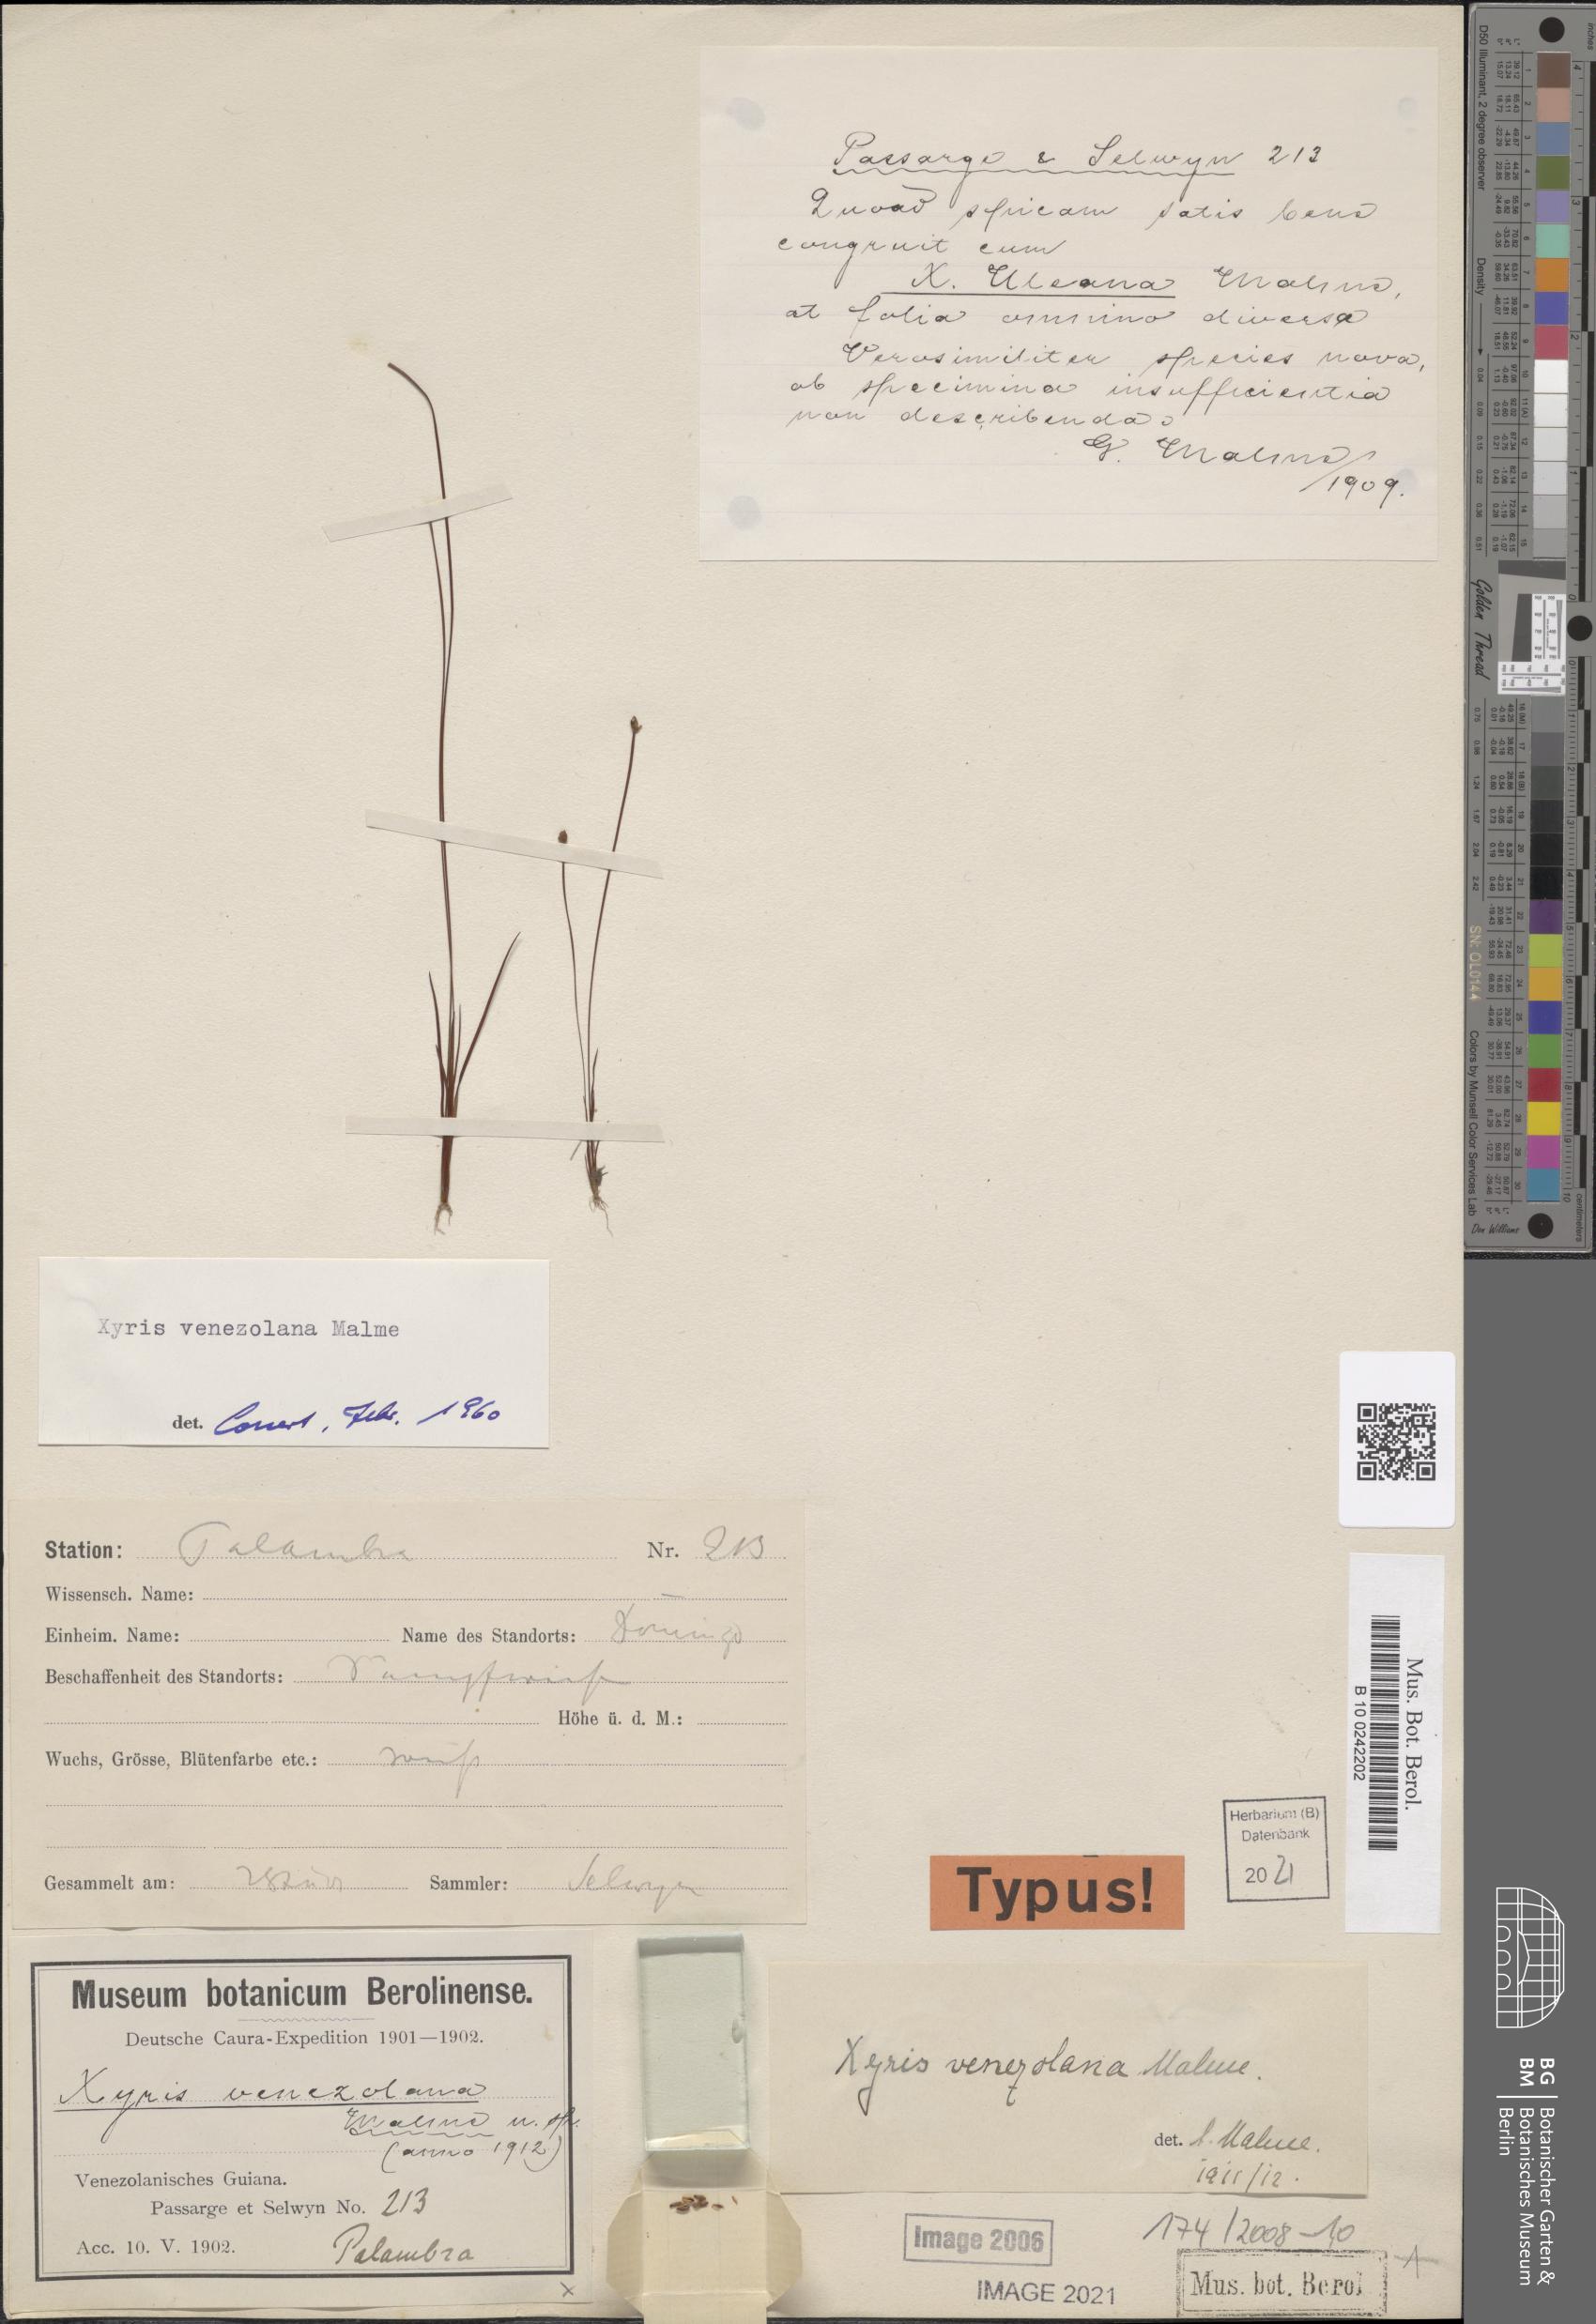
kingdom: Plantae
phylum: Tracheophyta
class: Liliopsida
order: Poales
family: Xyridaceae
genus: Xyris
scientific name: Xyris uleana
